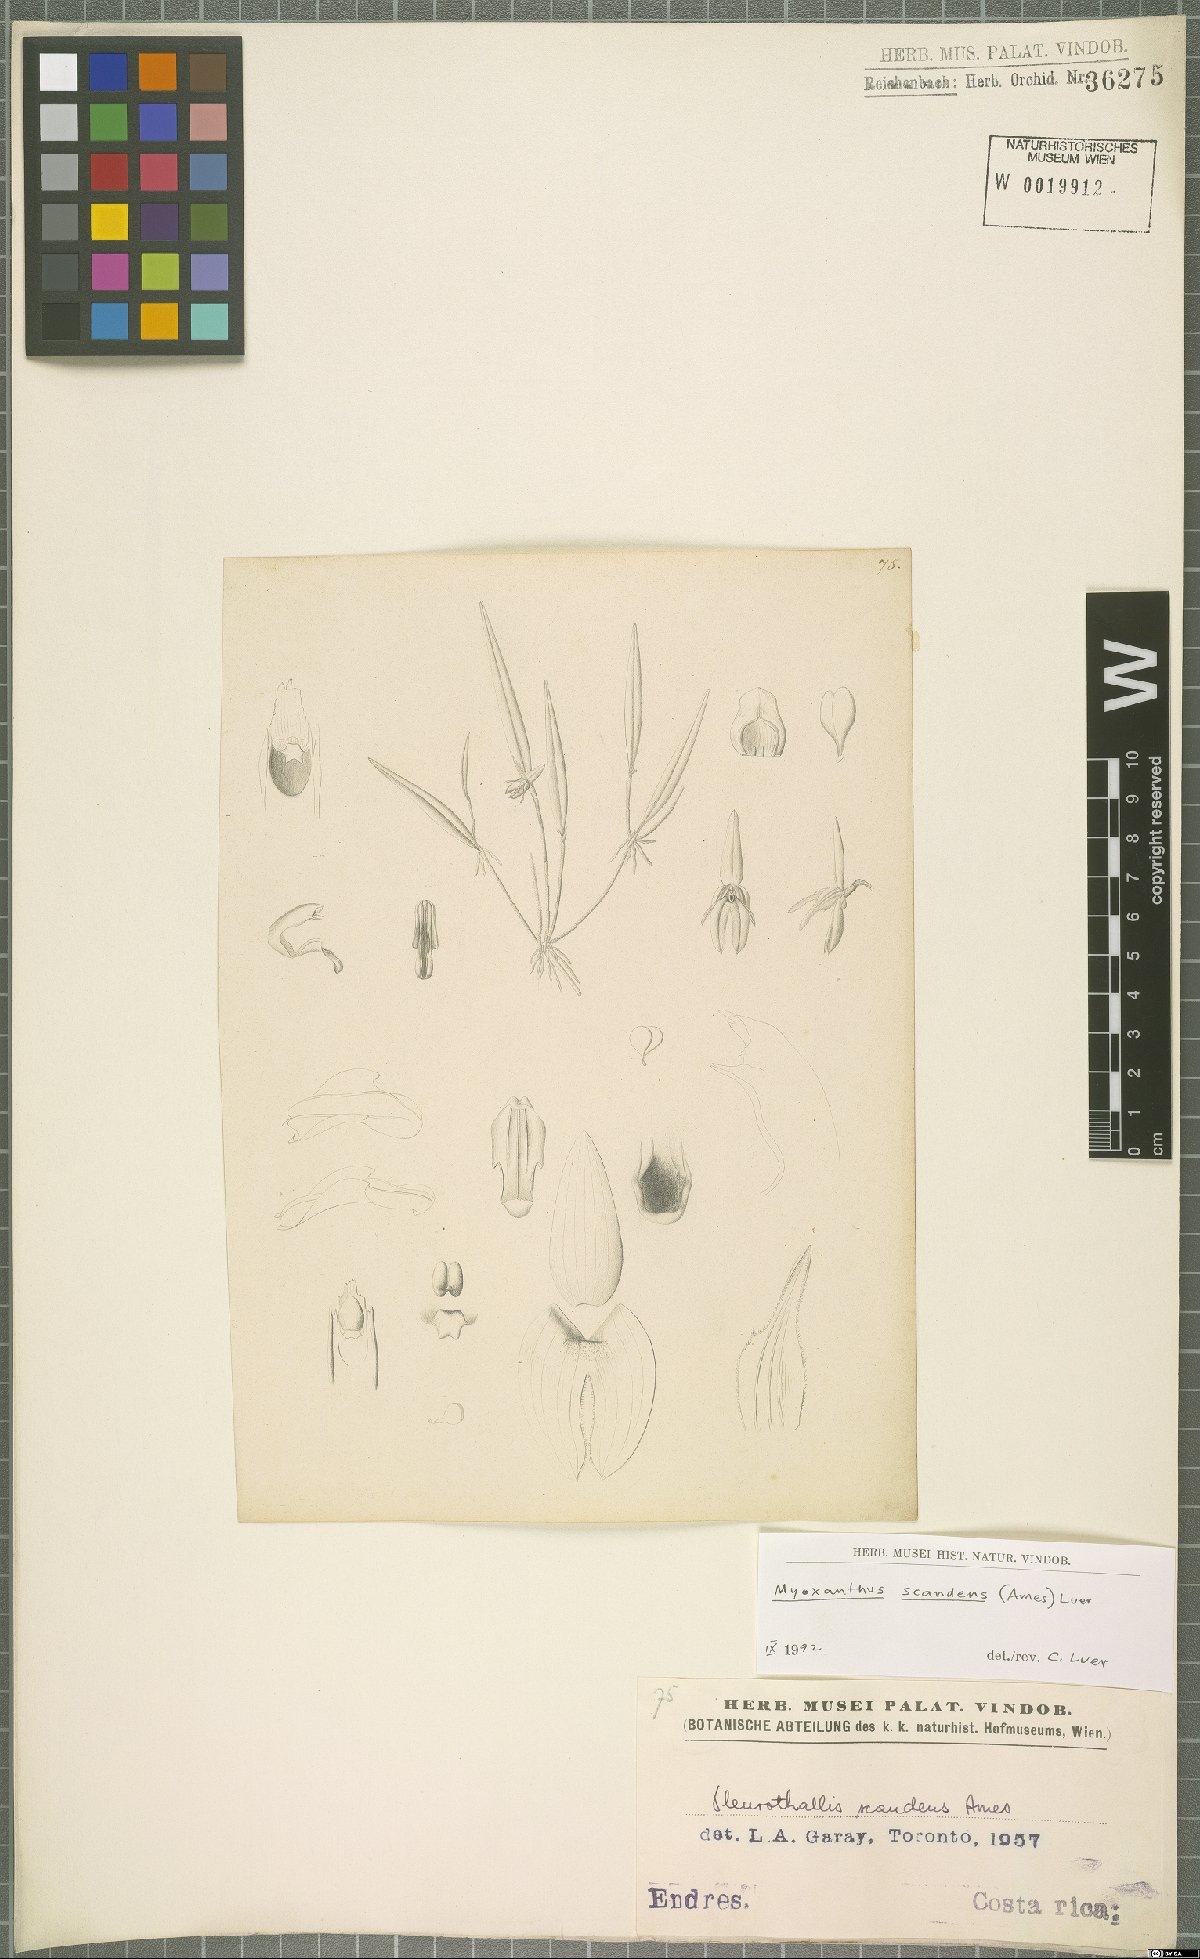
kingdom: Plantae
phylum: Tracheophyta
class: Liliopsida
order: Asparagales
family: Orchidaceae
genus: Myoxanthus
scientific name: Myoxanthus scandens
